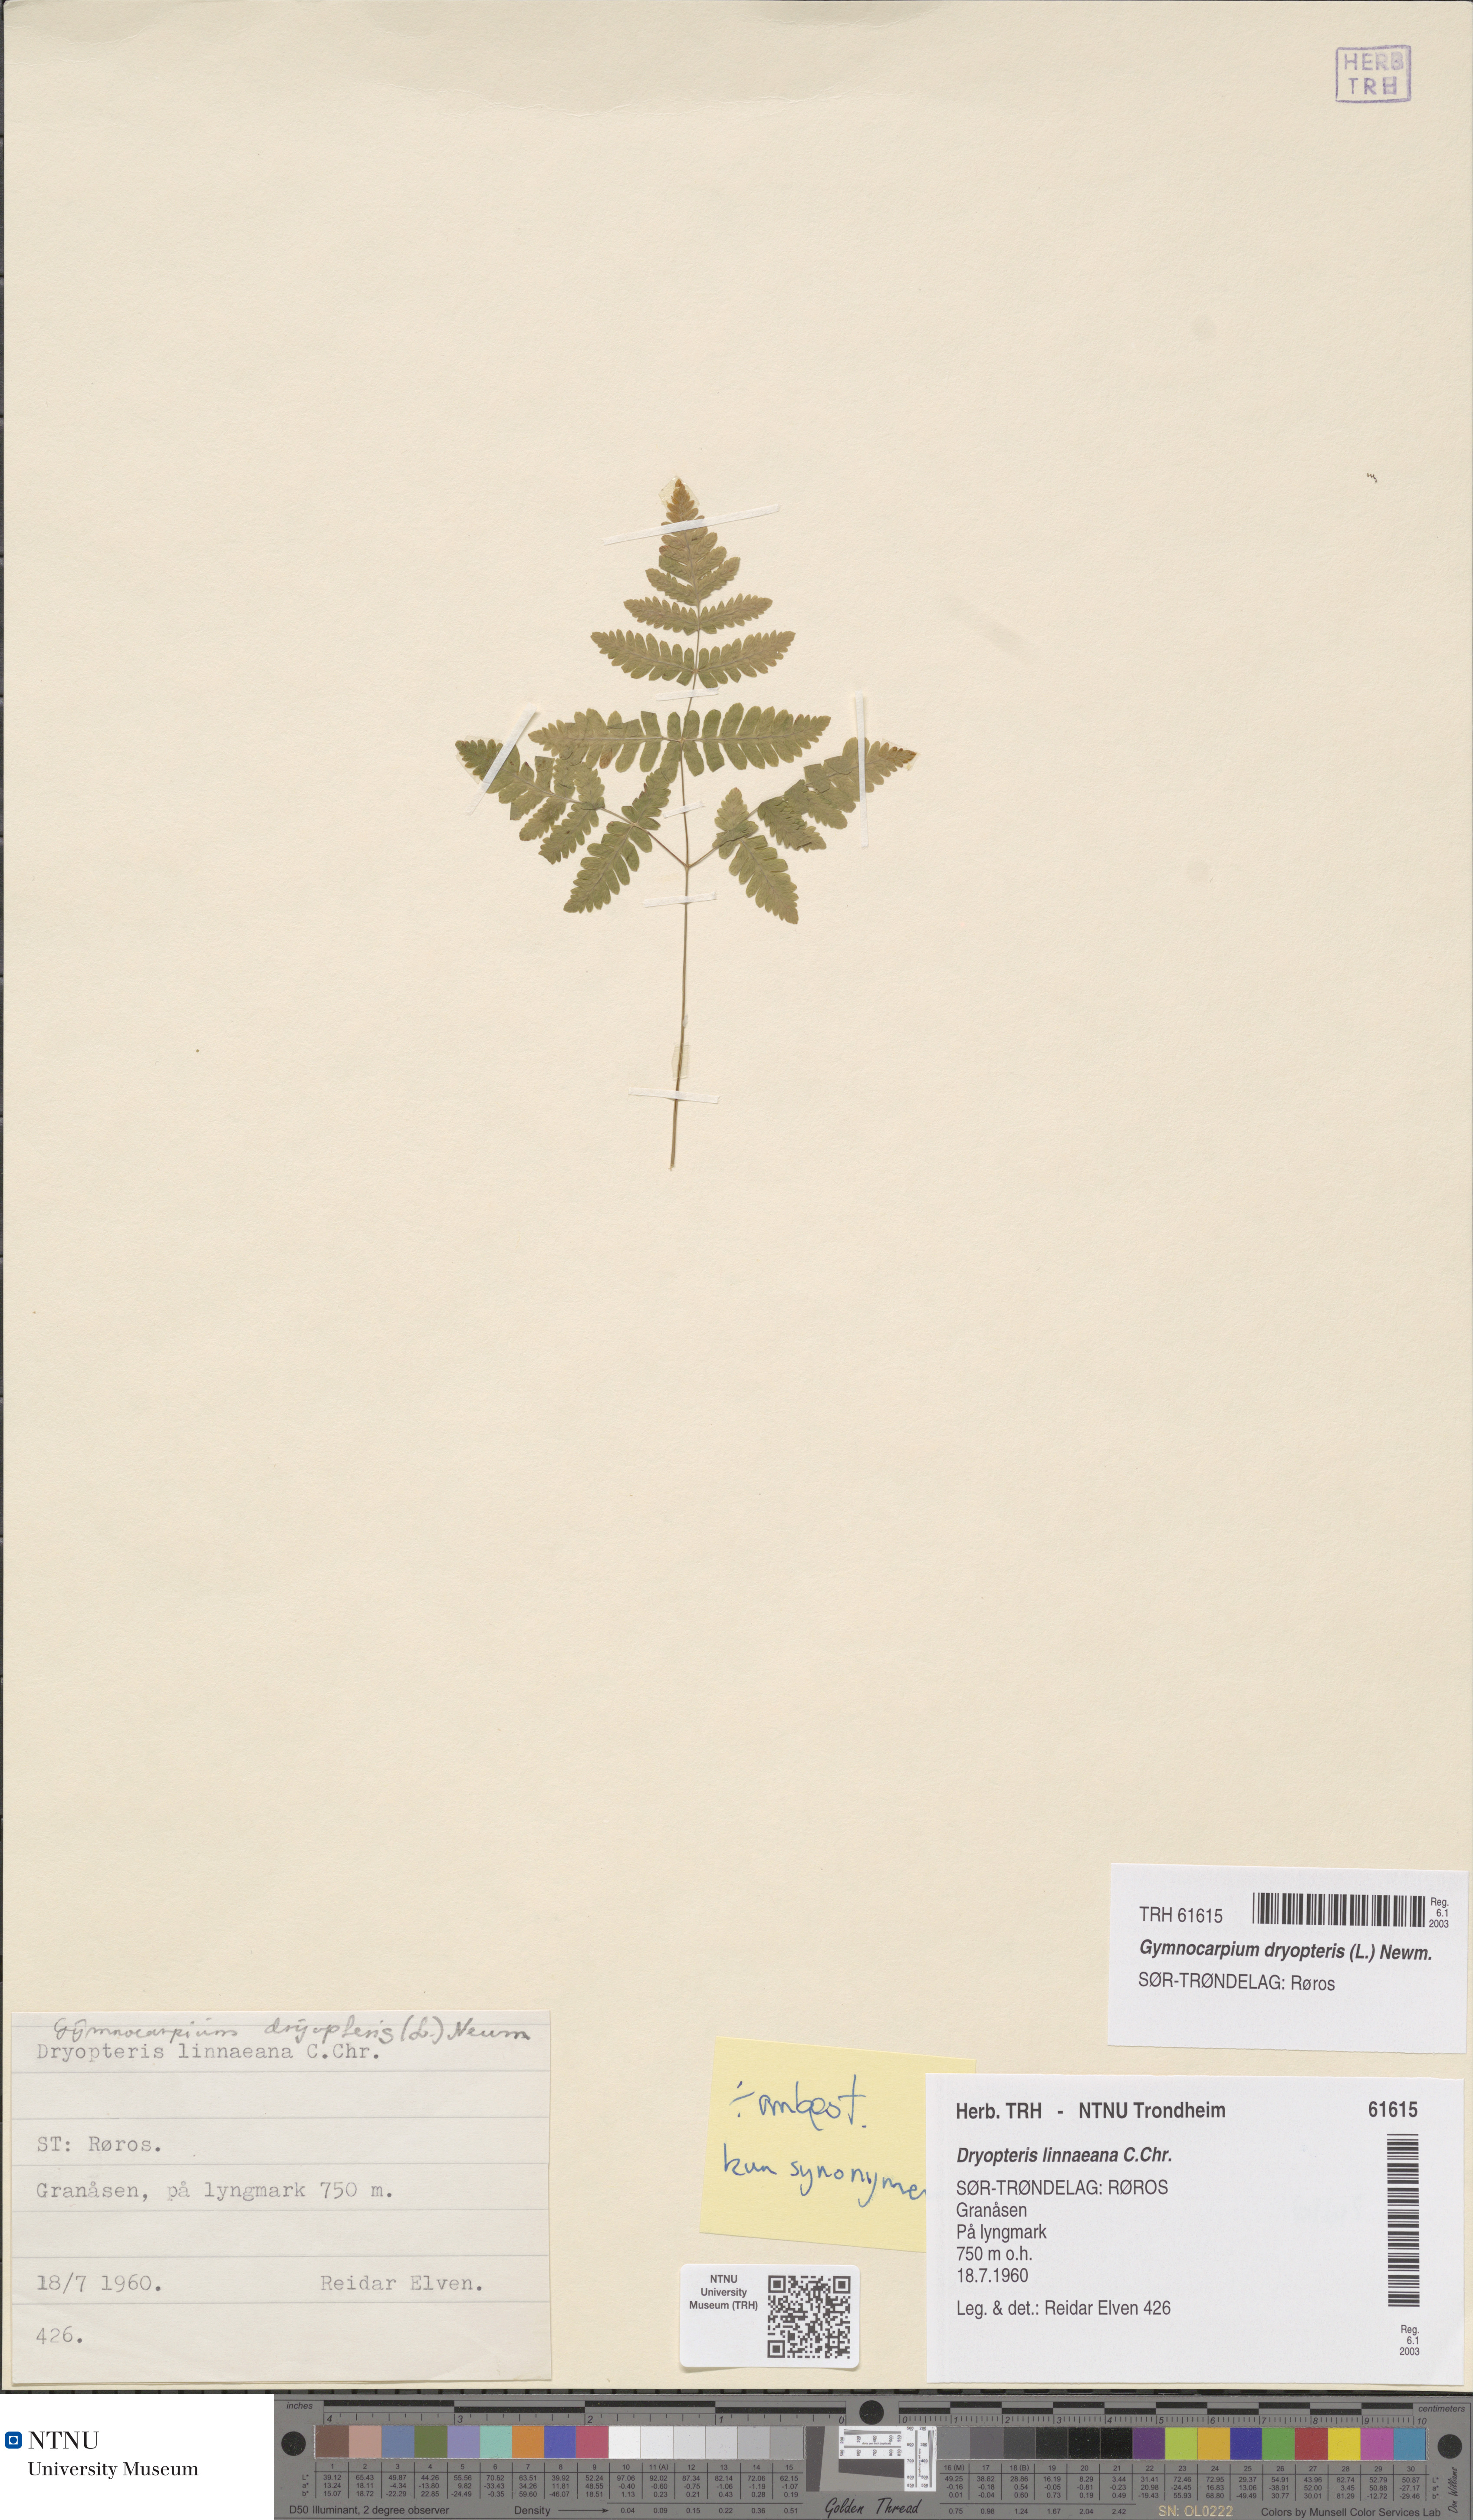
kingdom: Plantae
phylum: Tracheophyta
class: Polypodiopsida
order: Polypodiales
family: Cystopteridaceae
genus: Gymnocarpium
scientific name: Gymnocarpium dryopteris
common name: Oak fern
